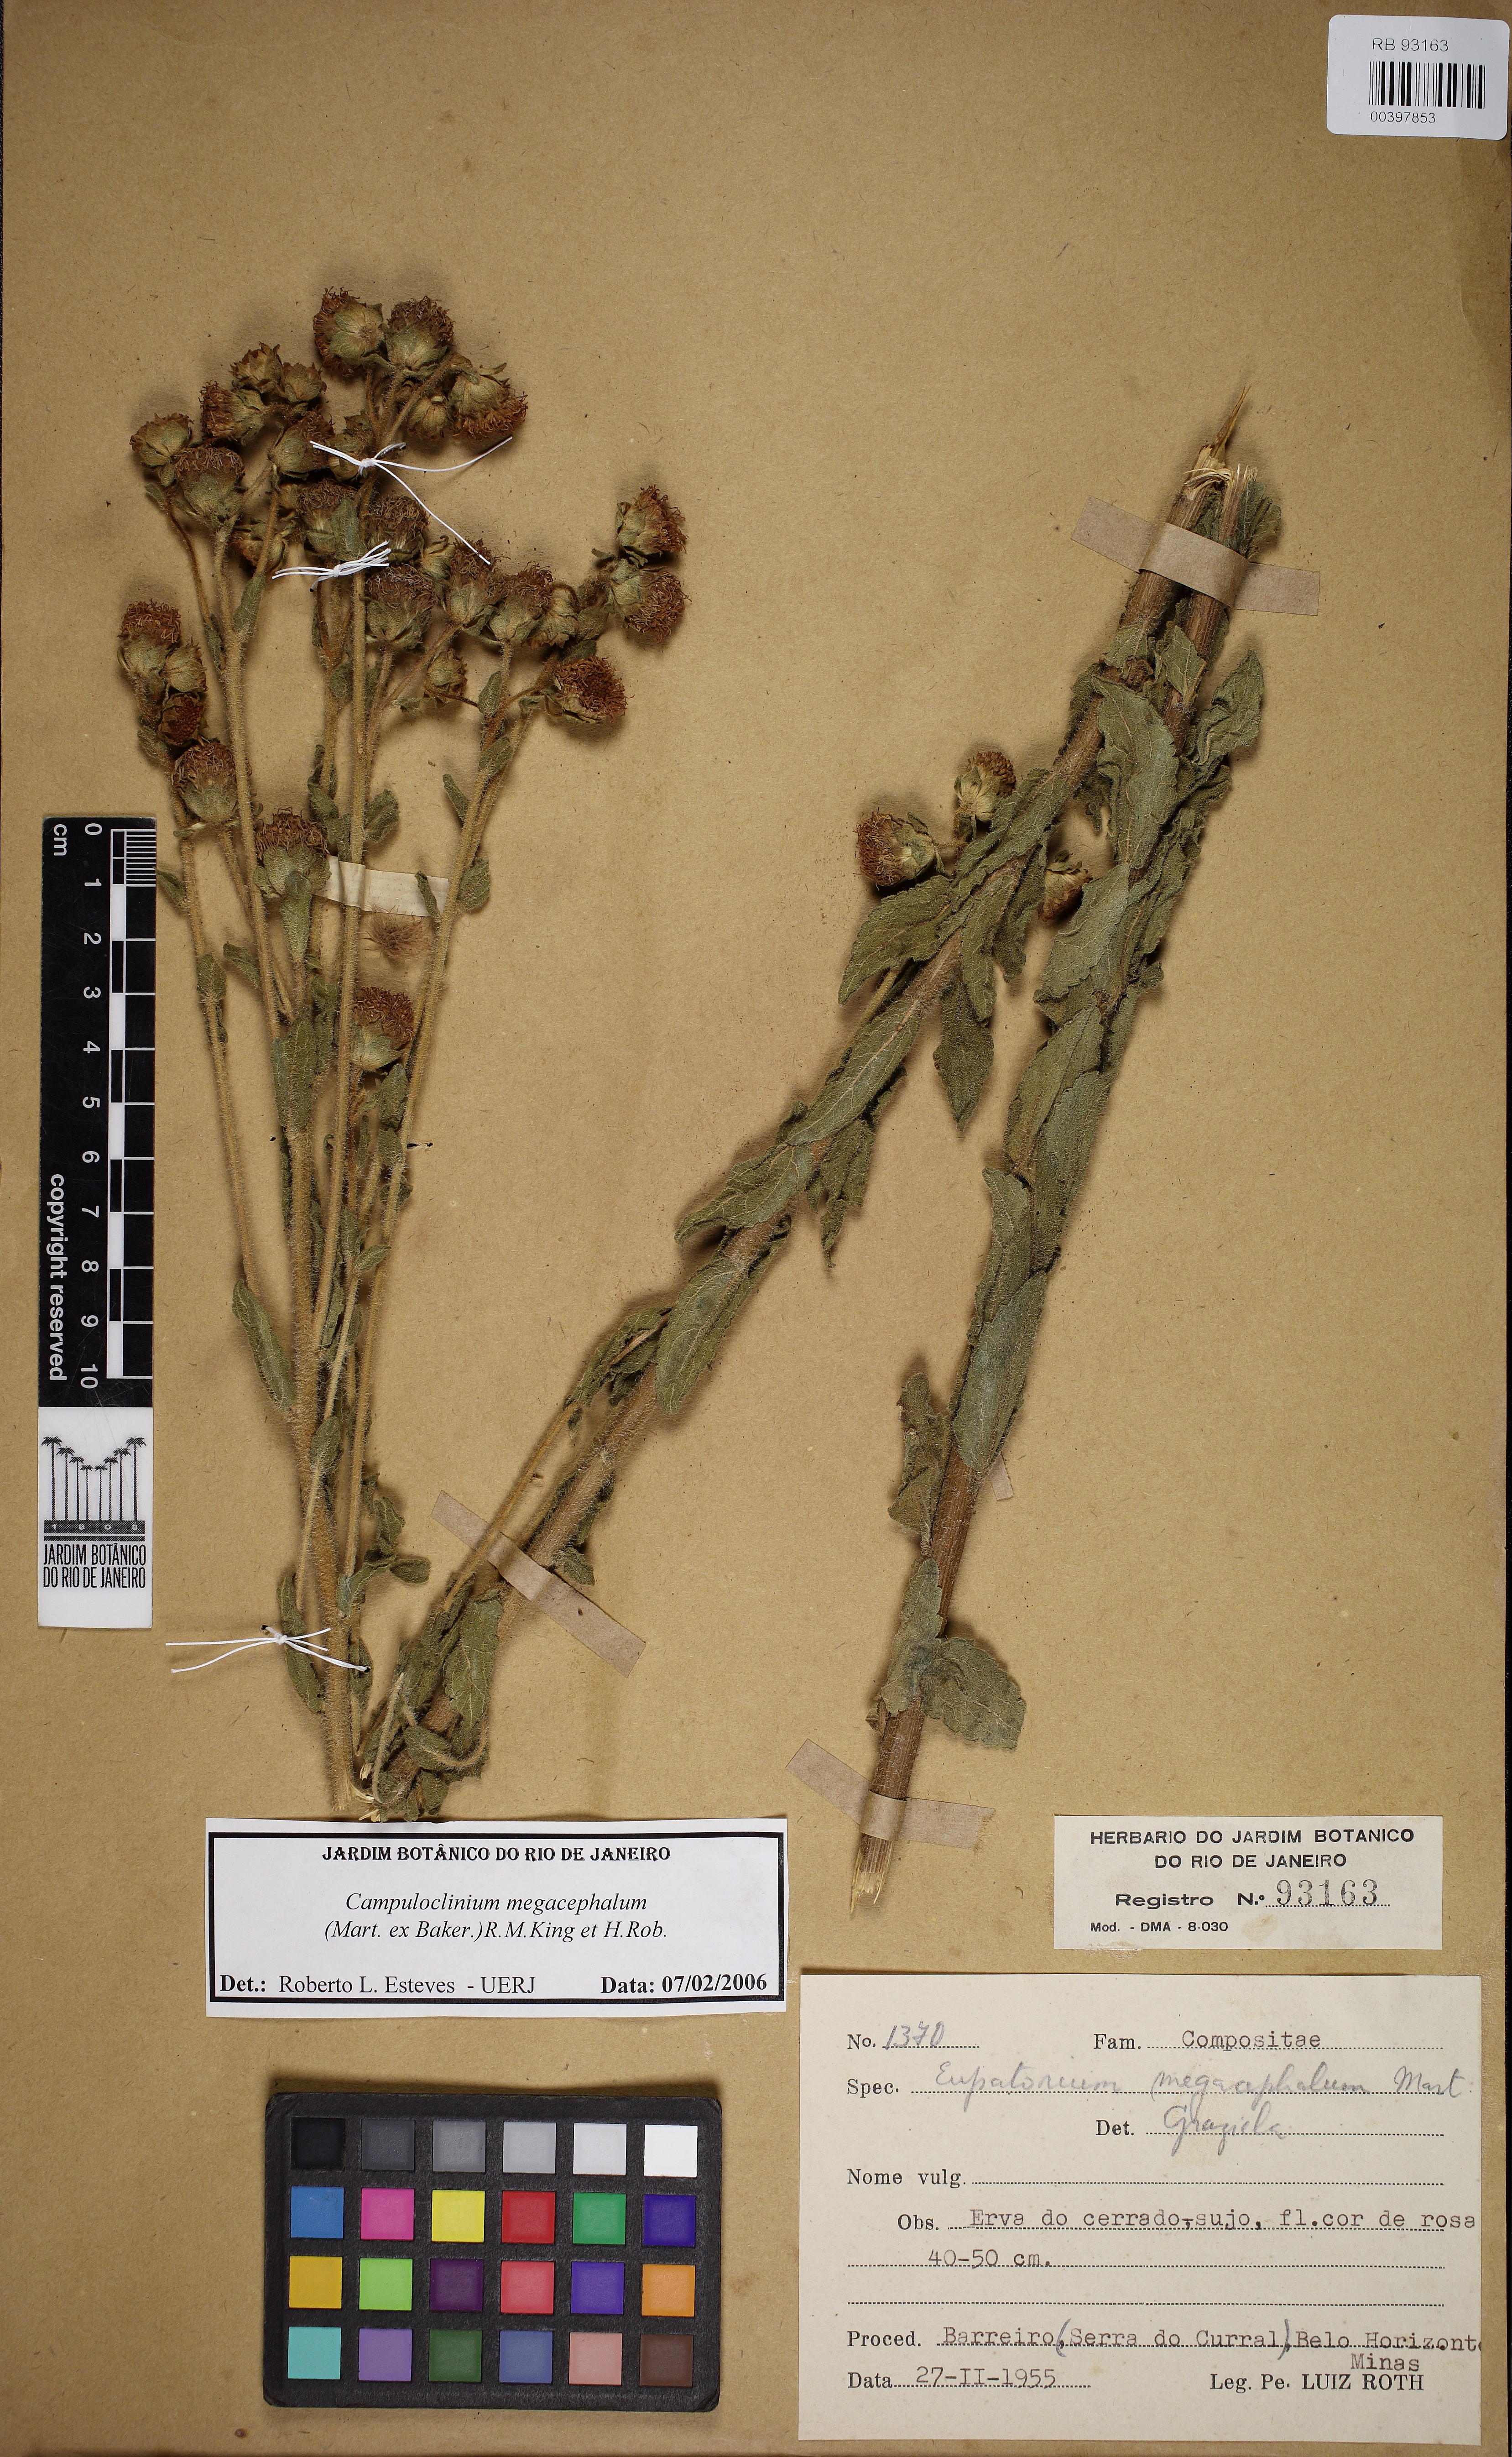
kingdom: Plantae
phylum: Tracheophyta
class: Magnoliopsida
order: Asterales
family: Asteraceae
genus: Campuloclinium
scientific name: Campuloclinium megacephalum
